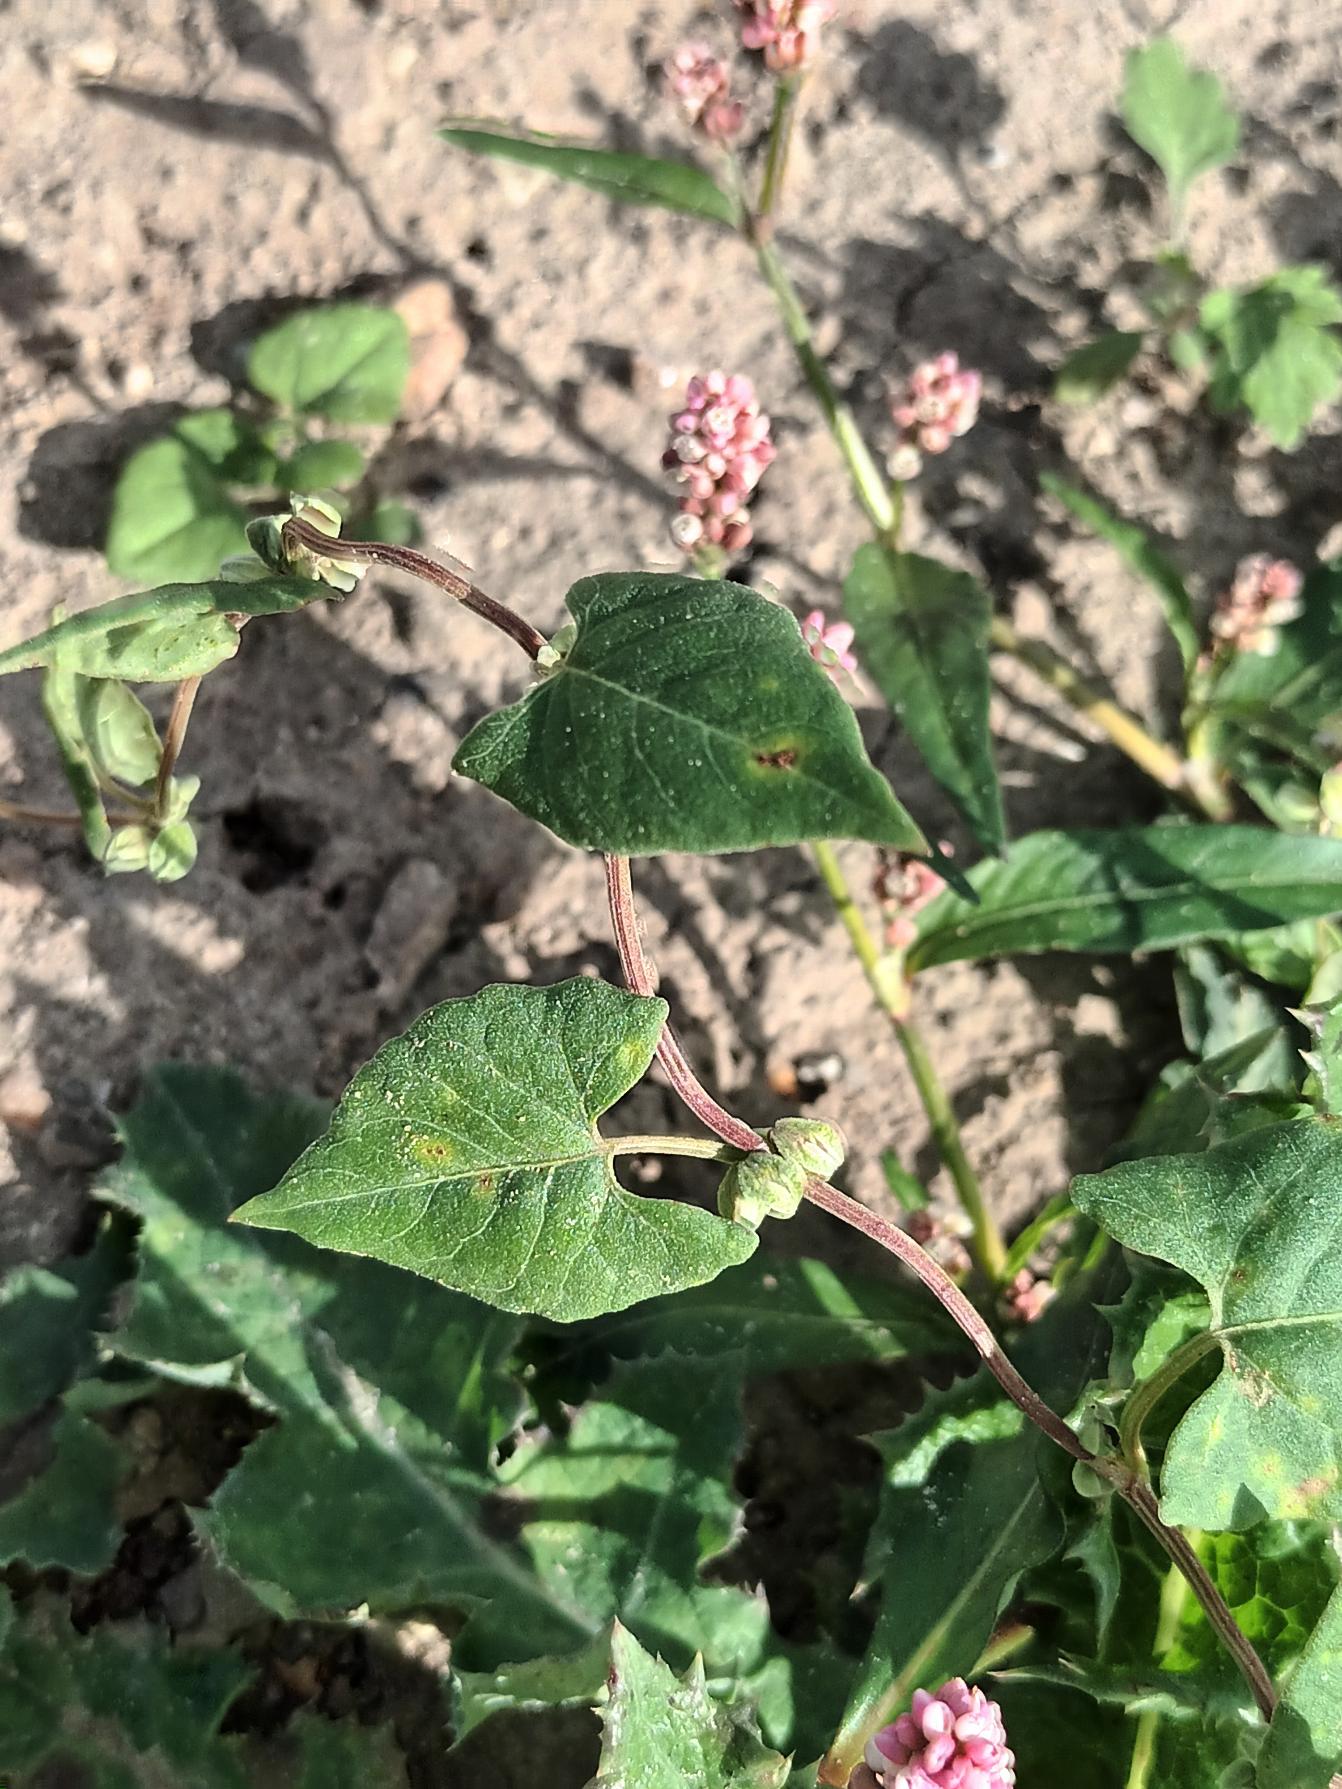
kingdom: Plantae
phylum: Tracheophyta
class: Magnoliopsida
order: Caryophyllales
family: Polygonaceae
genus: Fallopia
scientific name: Fallopia convolvulus
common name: Snerle-pileurt
